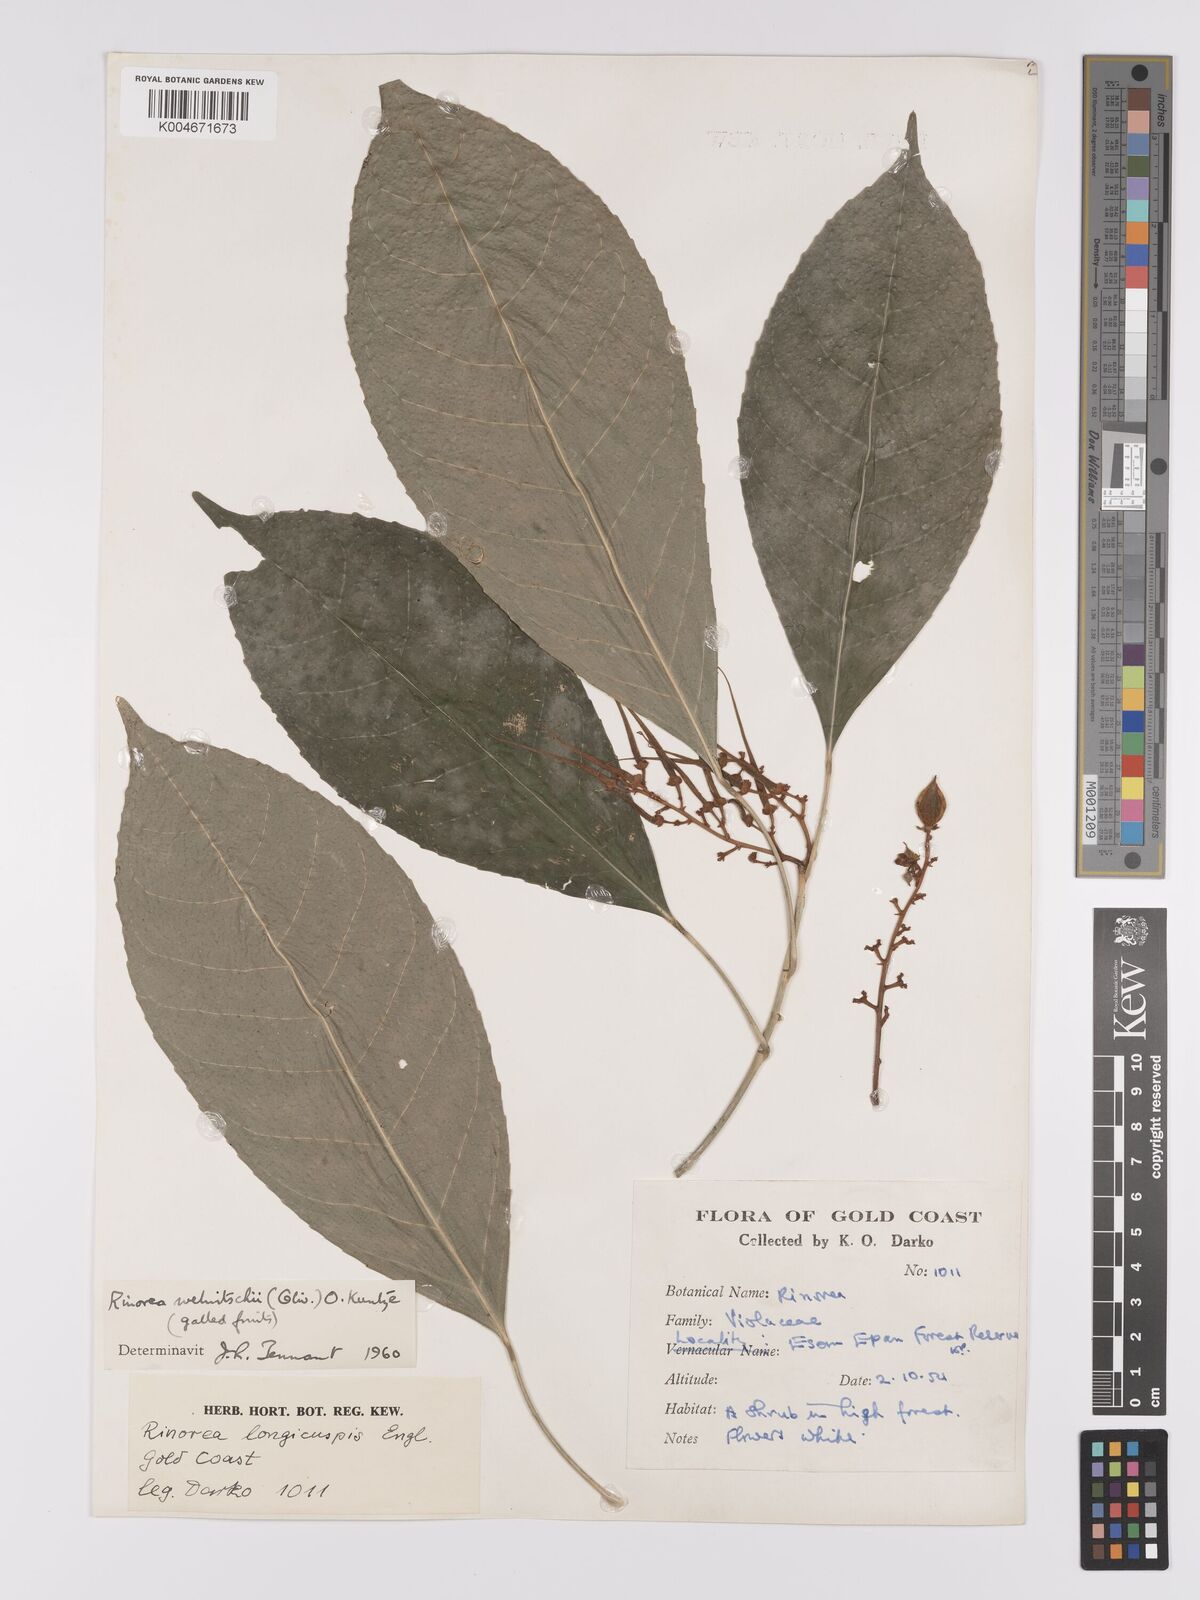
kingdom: Plantae
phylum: Tracheophyta
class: Magnoliopsida
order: Malpighiales
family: Violaceae
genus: Rinorea
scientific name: Rinorea welwitschii
